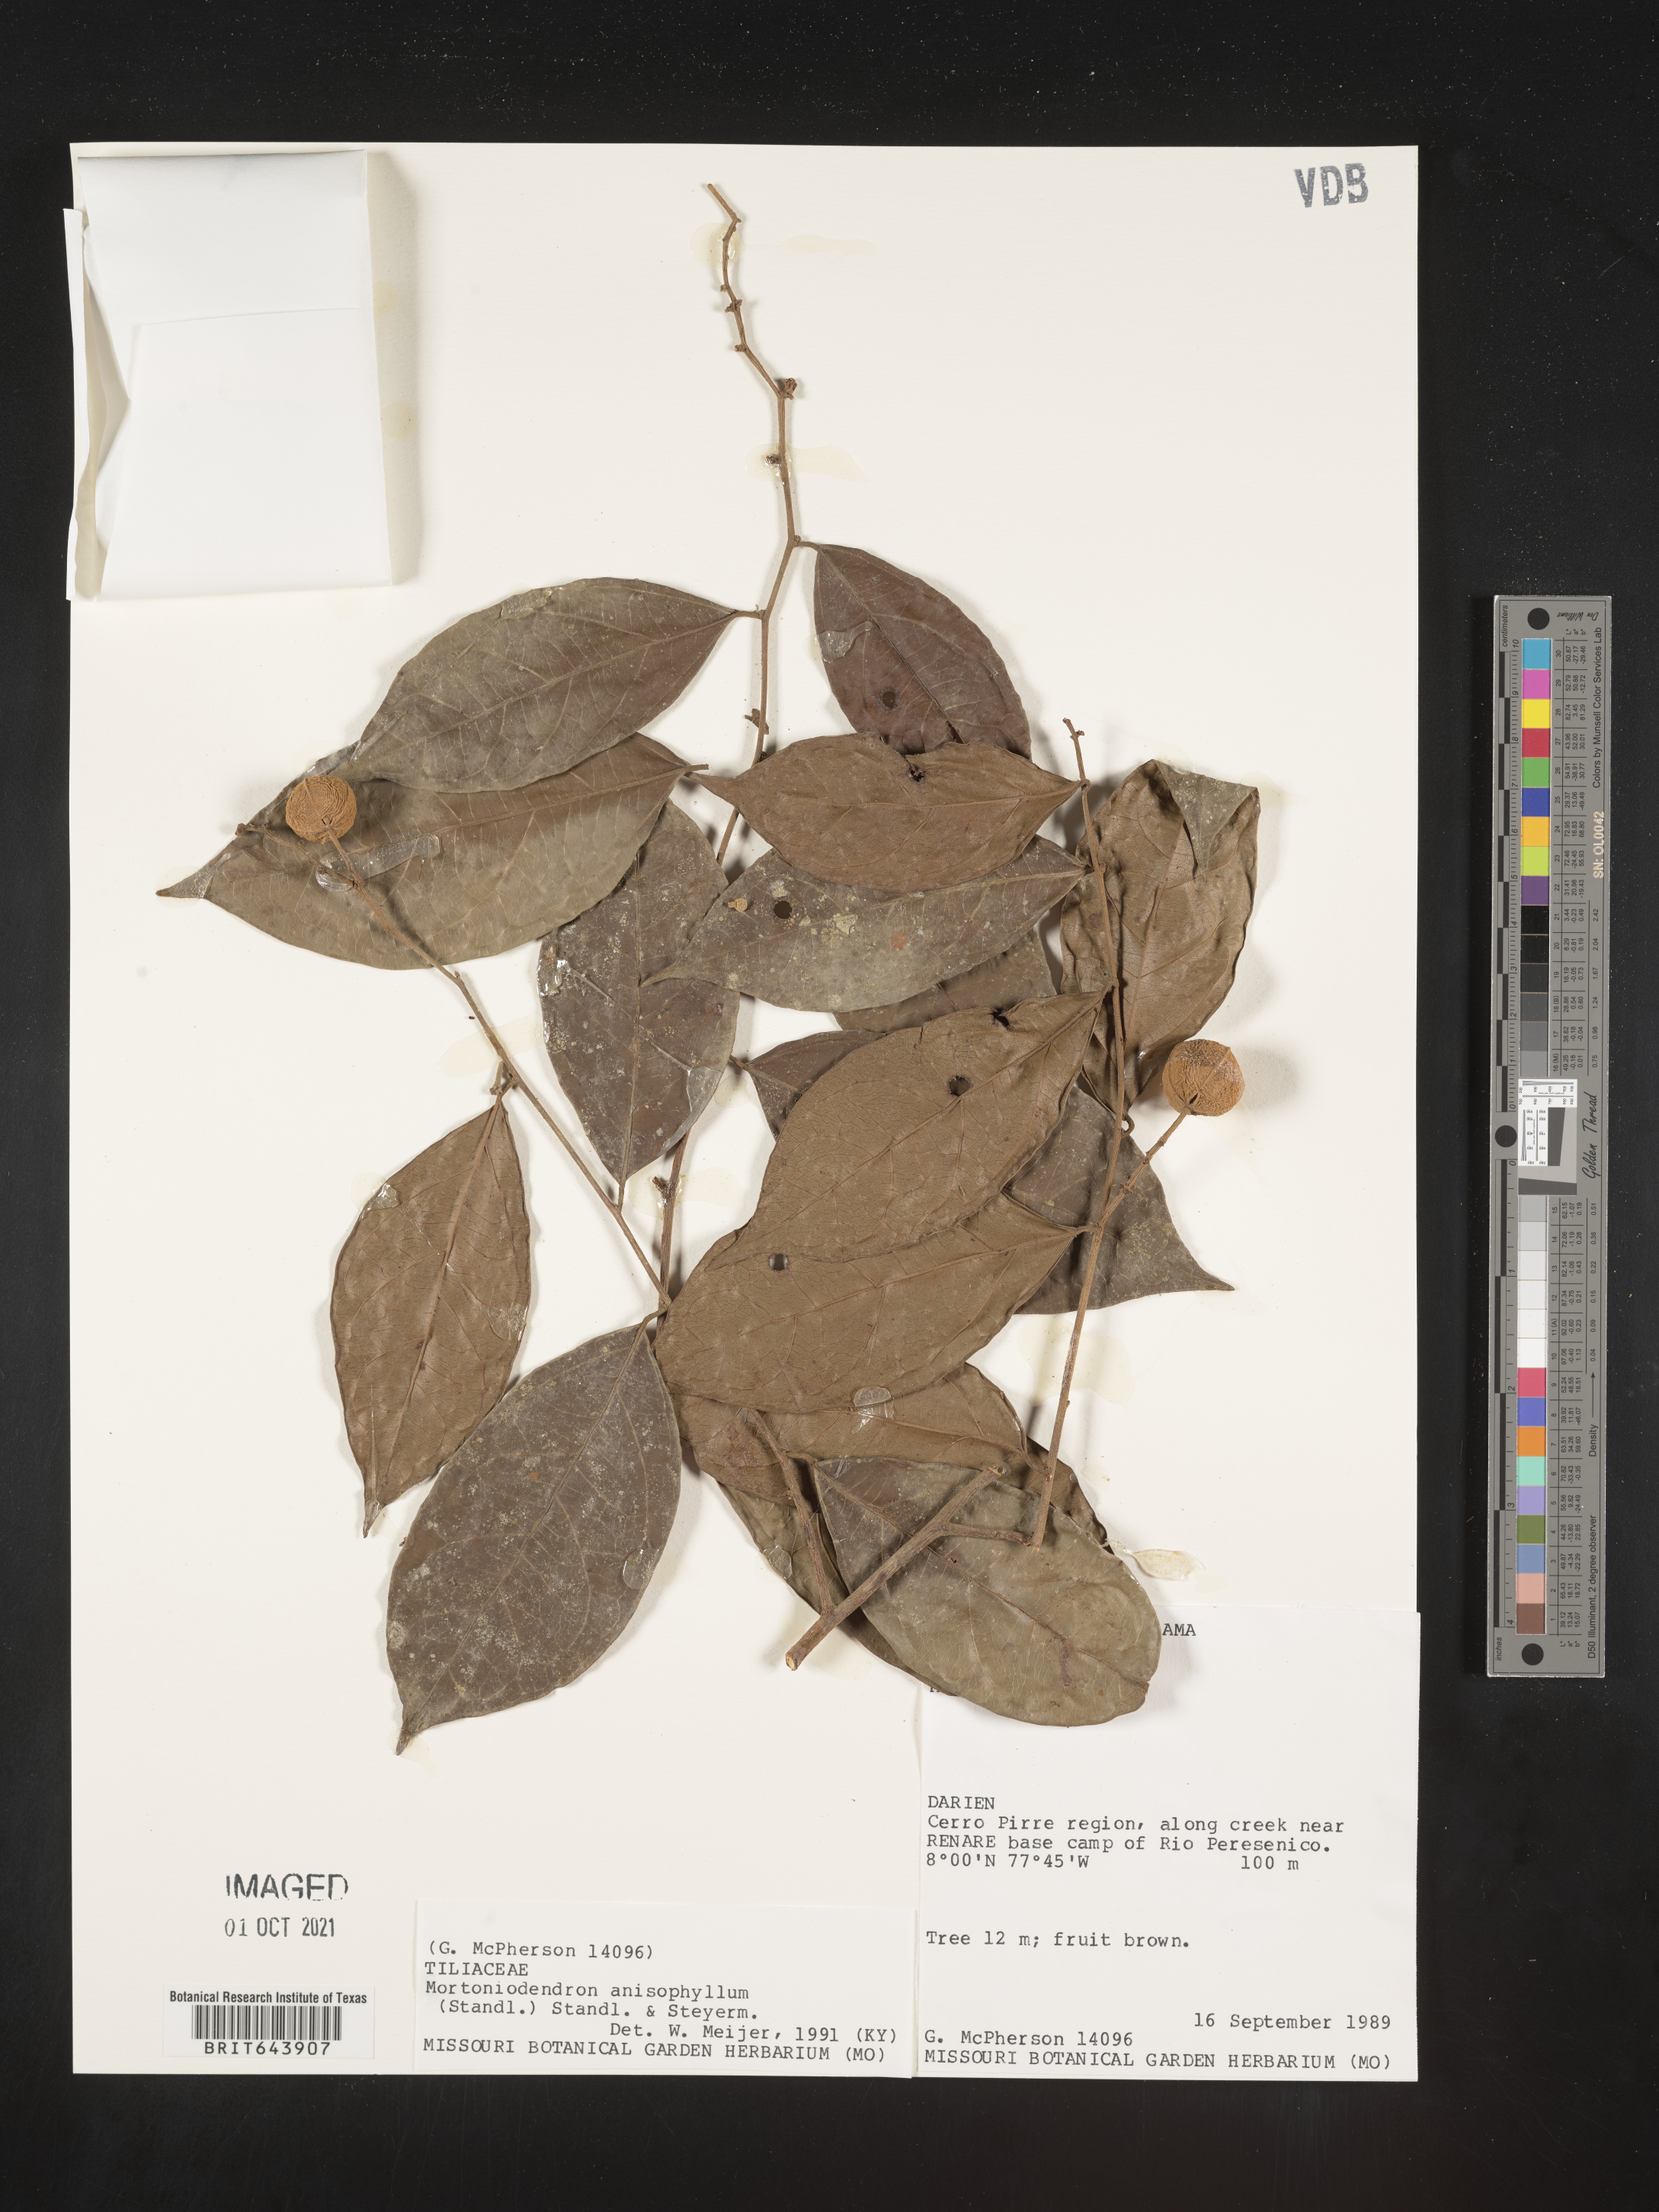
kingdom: Plantae
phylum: Tracheophyta
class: Magnoliopsida
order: Malvales
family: Malvaceae
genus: Mortoniodendron
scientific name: Mortoniodendron
